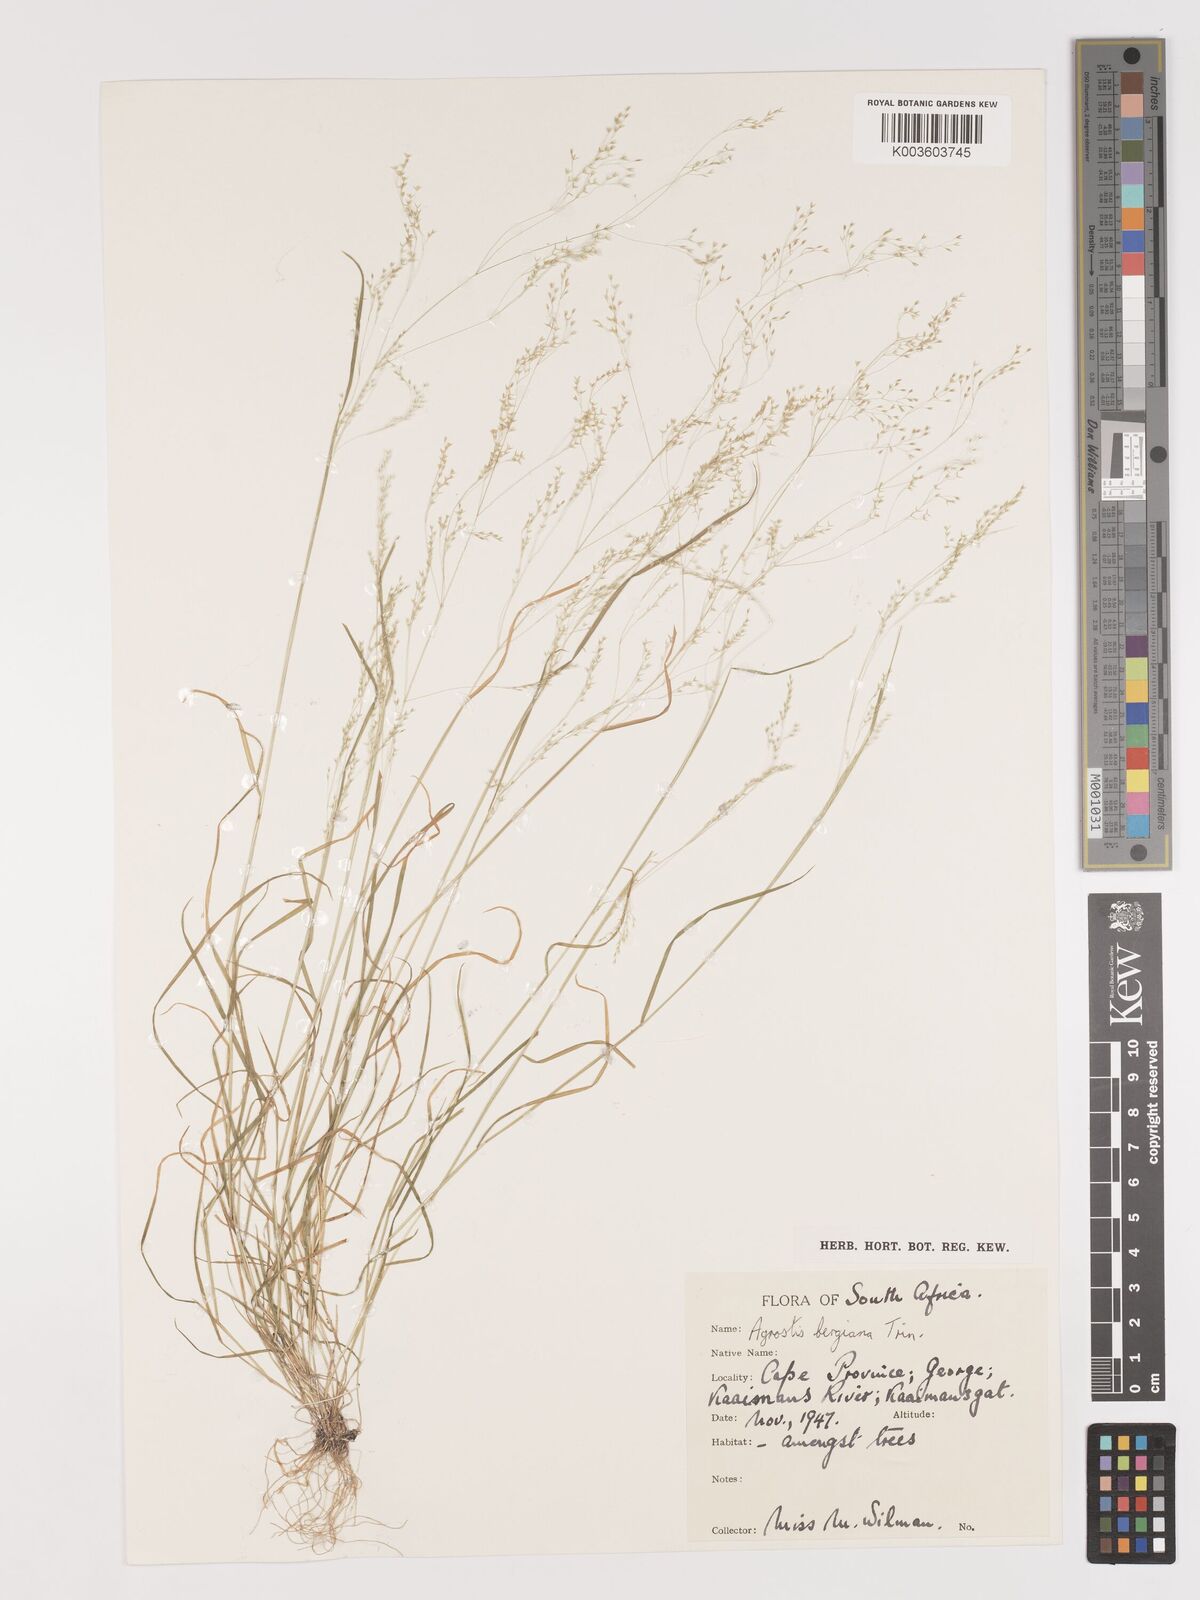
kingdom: Plantae
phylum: Tracheophyta
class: Liliopsida
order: Poales
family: Poaceae
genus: Agrostis
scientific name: Agrostis bergiana
